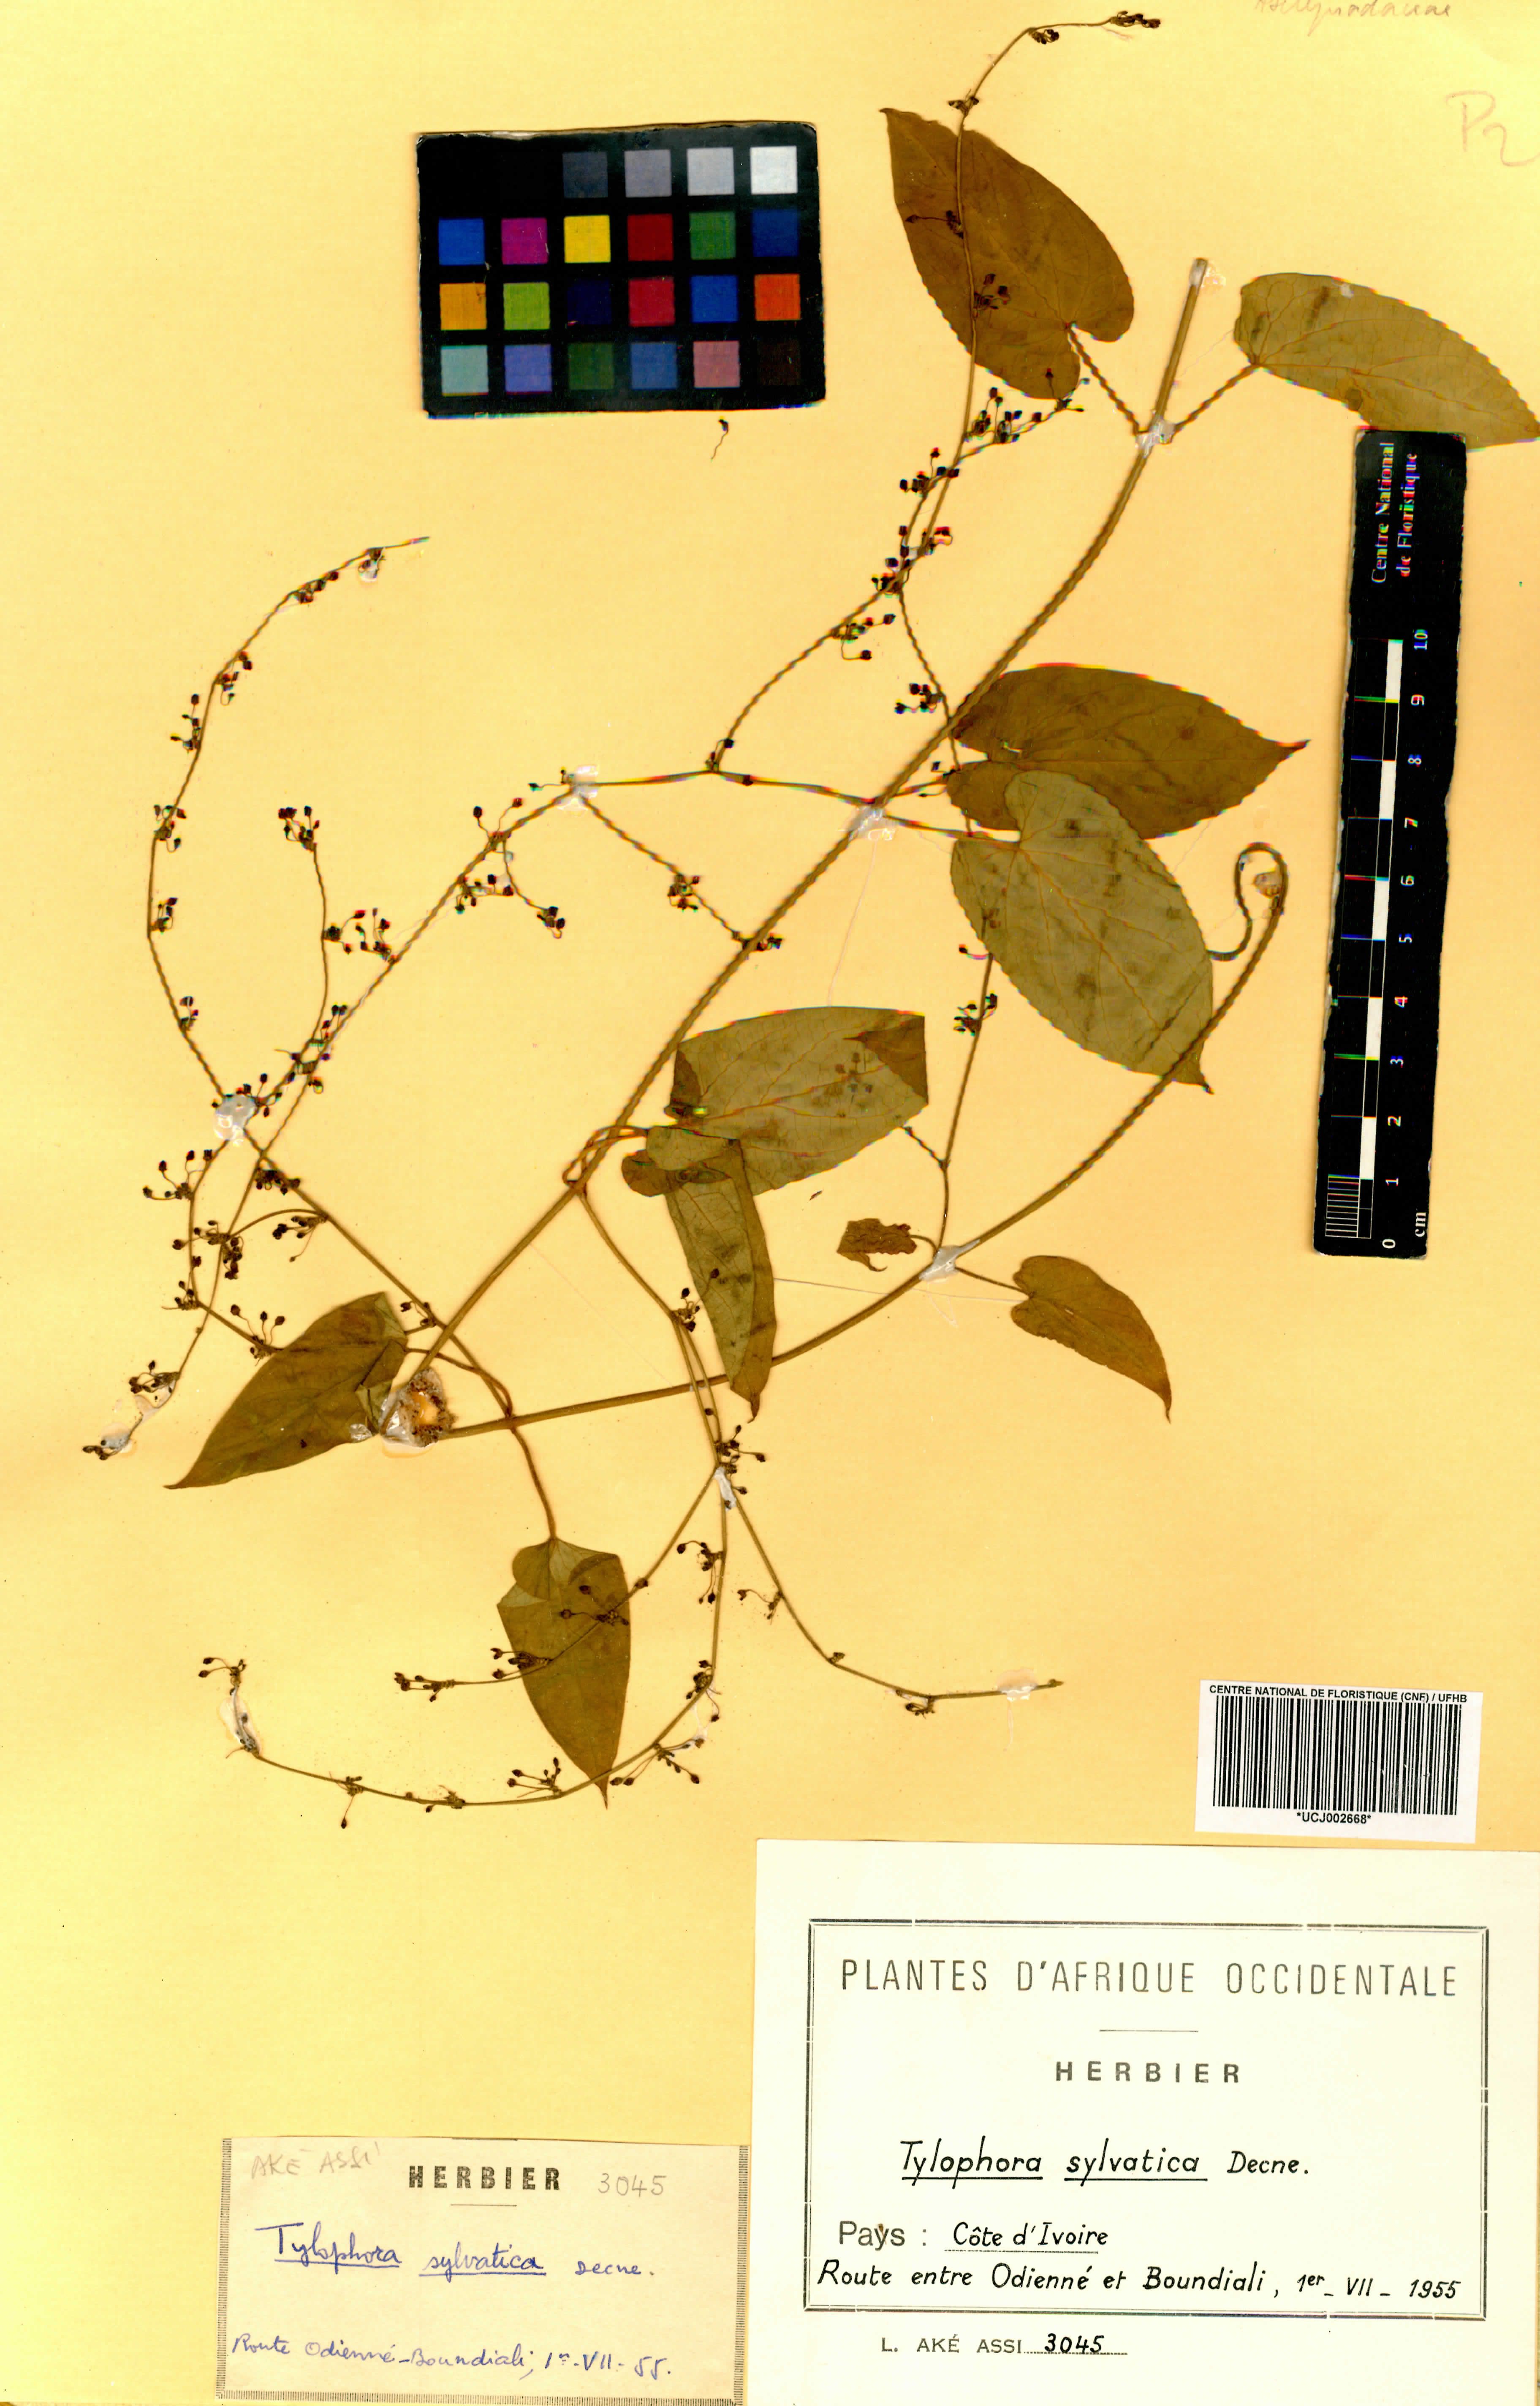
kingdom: Plantae
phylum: Tracheophyta
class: Magnoliopsida
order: Gentianales
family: Apocynaceae
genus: Vincetoxicum
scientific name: Vincetoxicum sylvaticum
